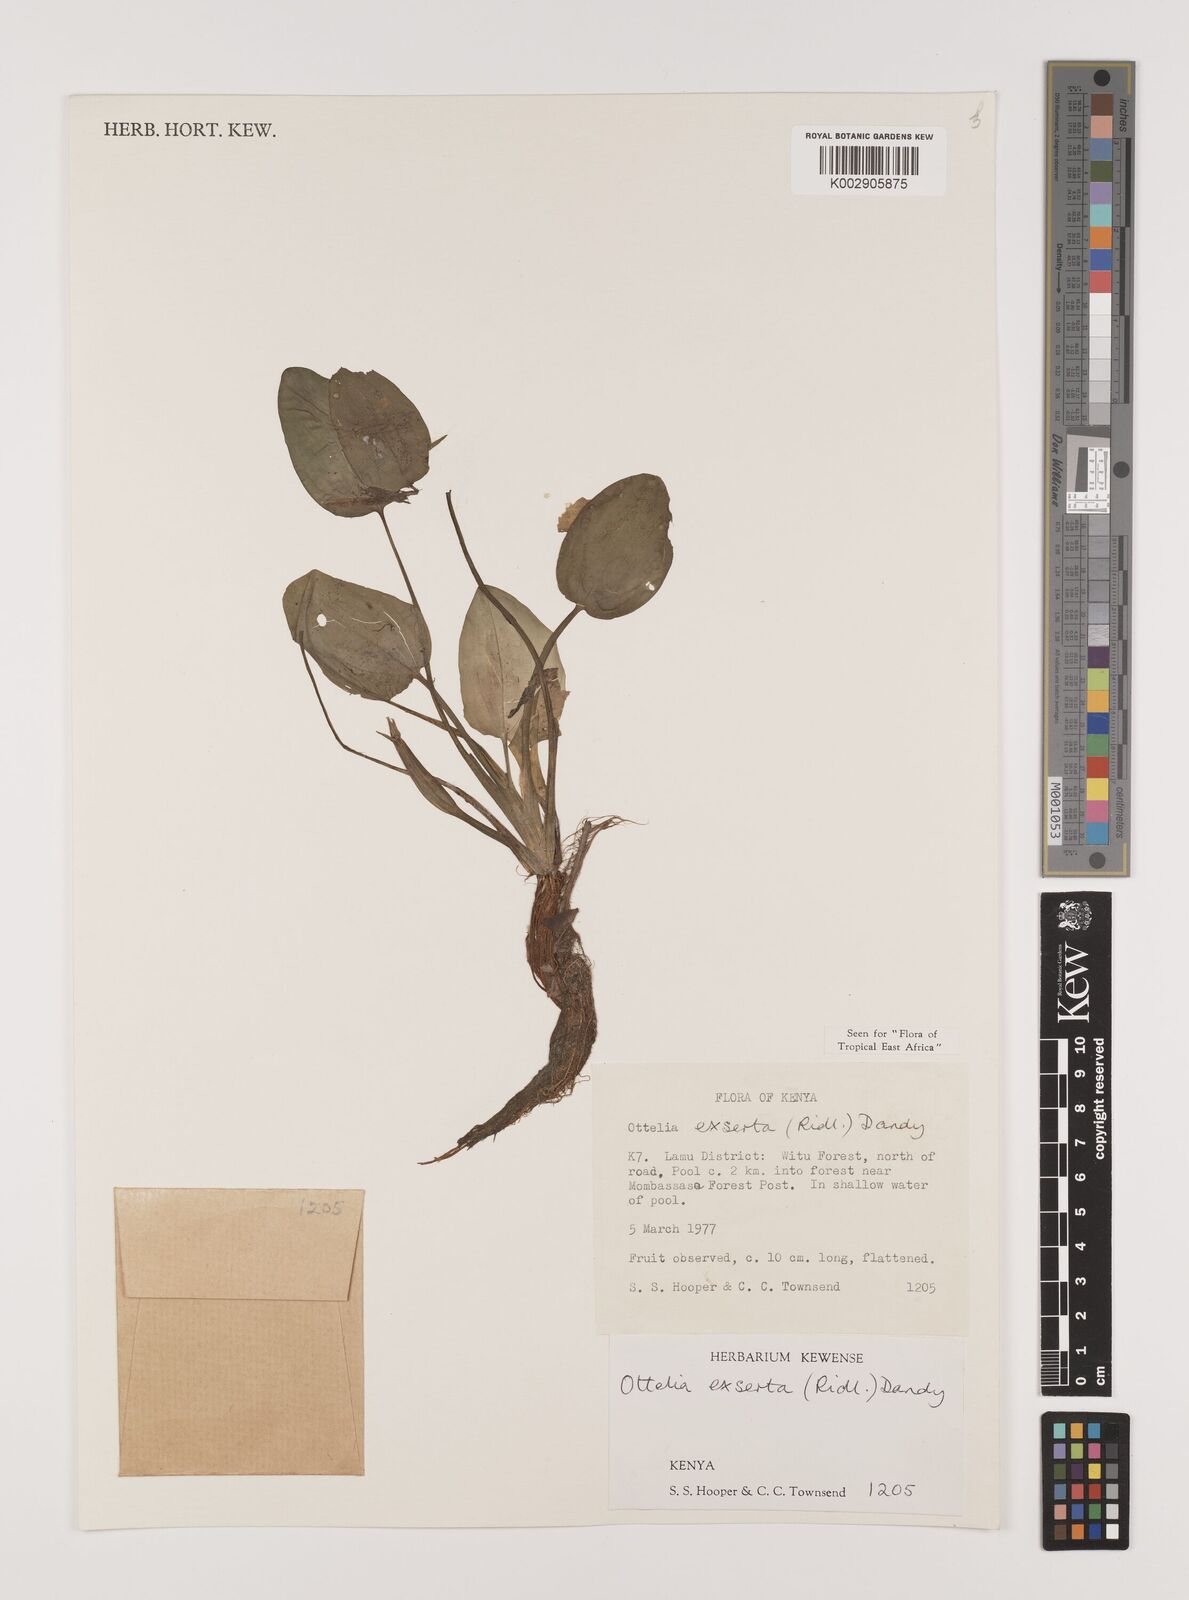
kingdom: Plantae
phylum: Tracheophyta
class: Liliopsida
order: Alismatales
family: Hydrocharitaceae
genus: Ottelia
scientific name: Ottelia exserta
